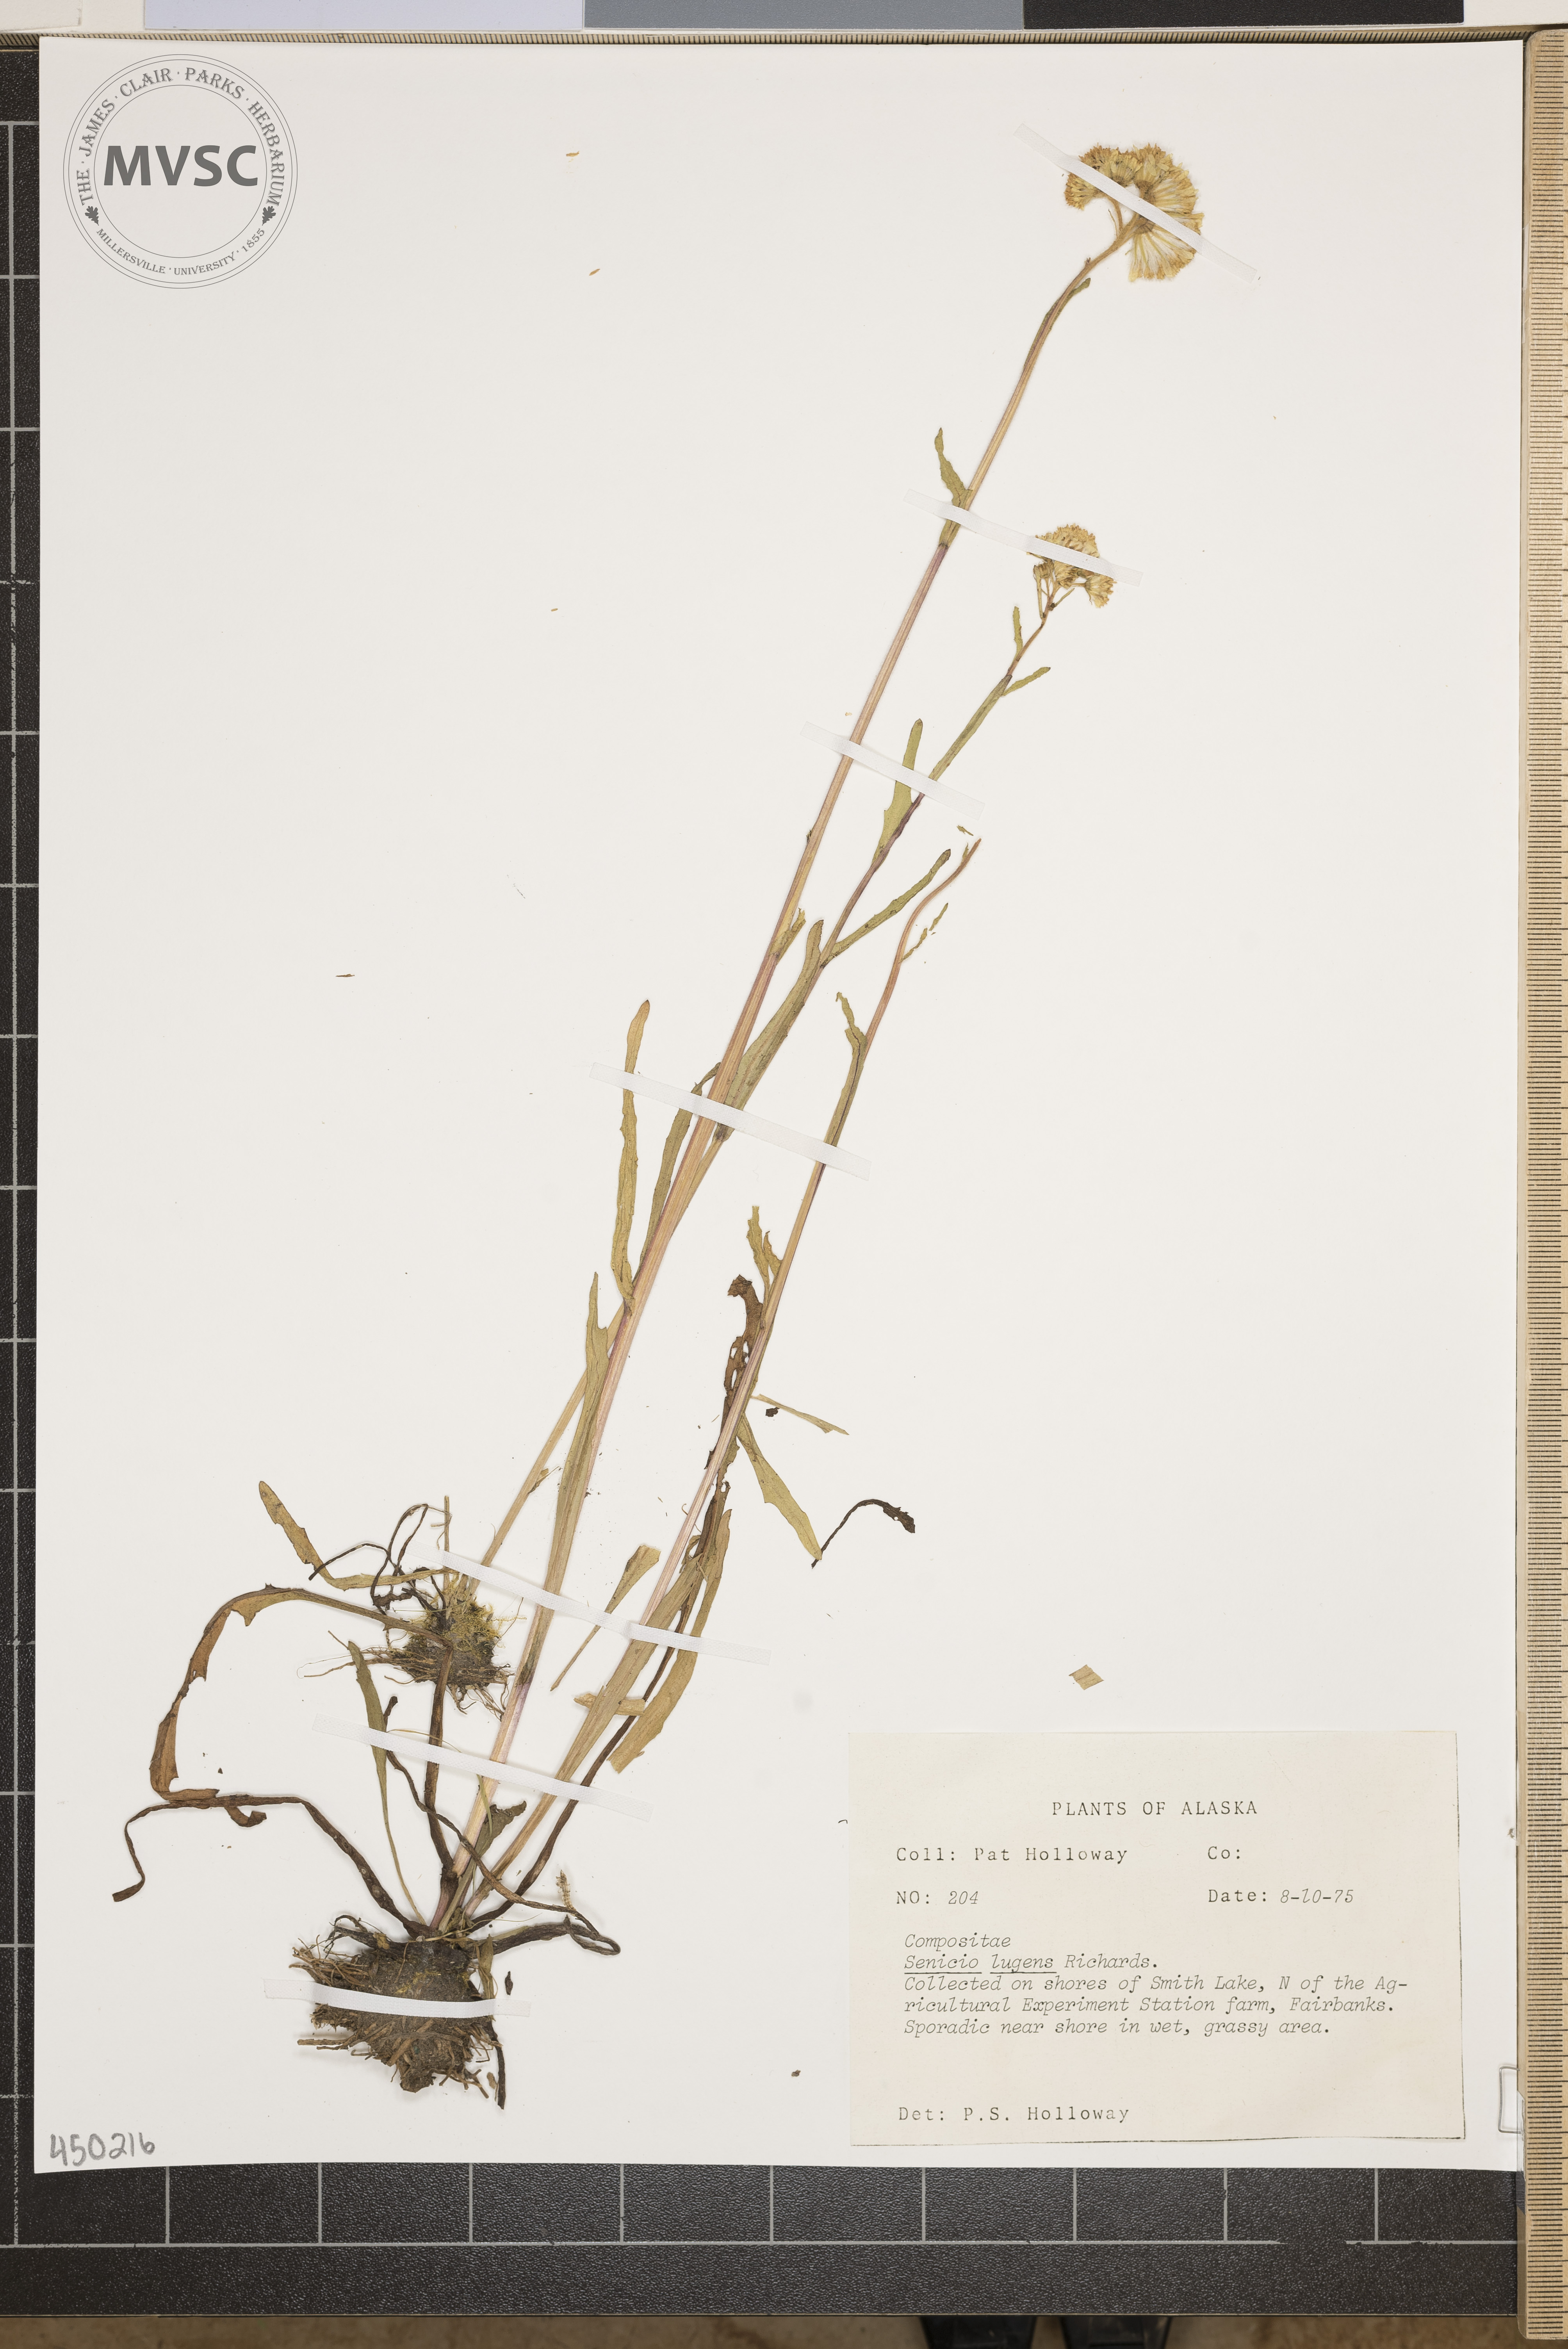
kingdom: Plantae
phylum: Tracheophyta
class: Magnoliopsida
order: Asterales
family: Asteraceae
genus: Senecio
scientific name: Senecio lugens
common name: Black-tip groundsel
